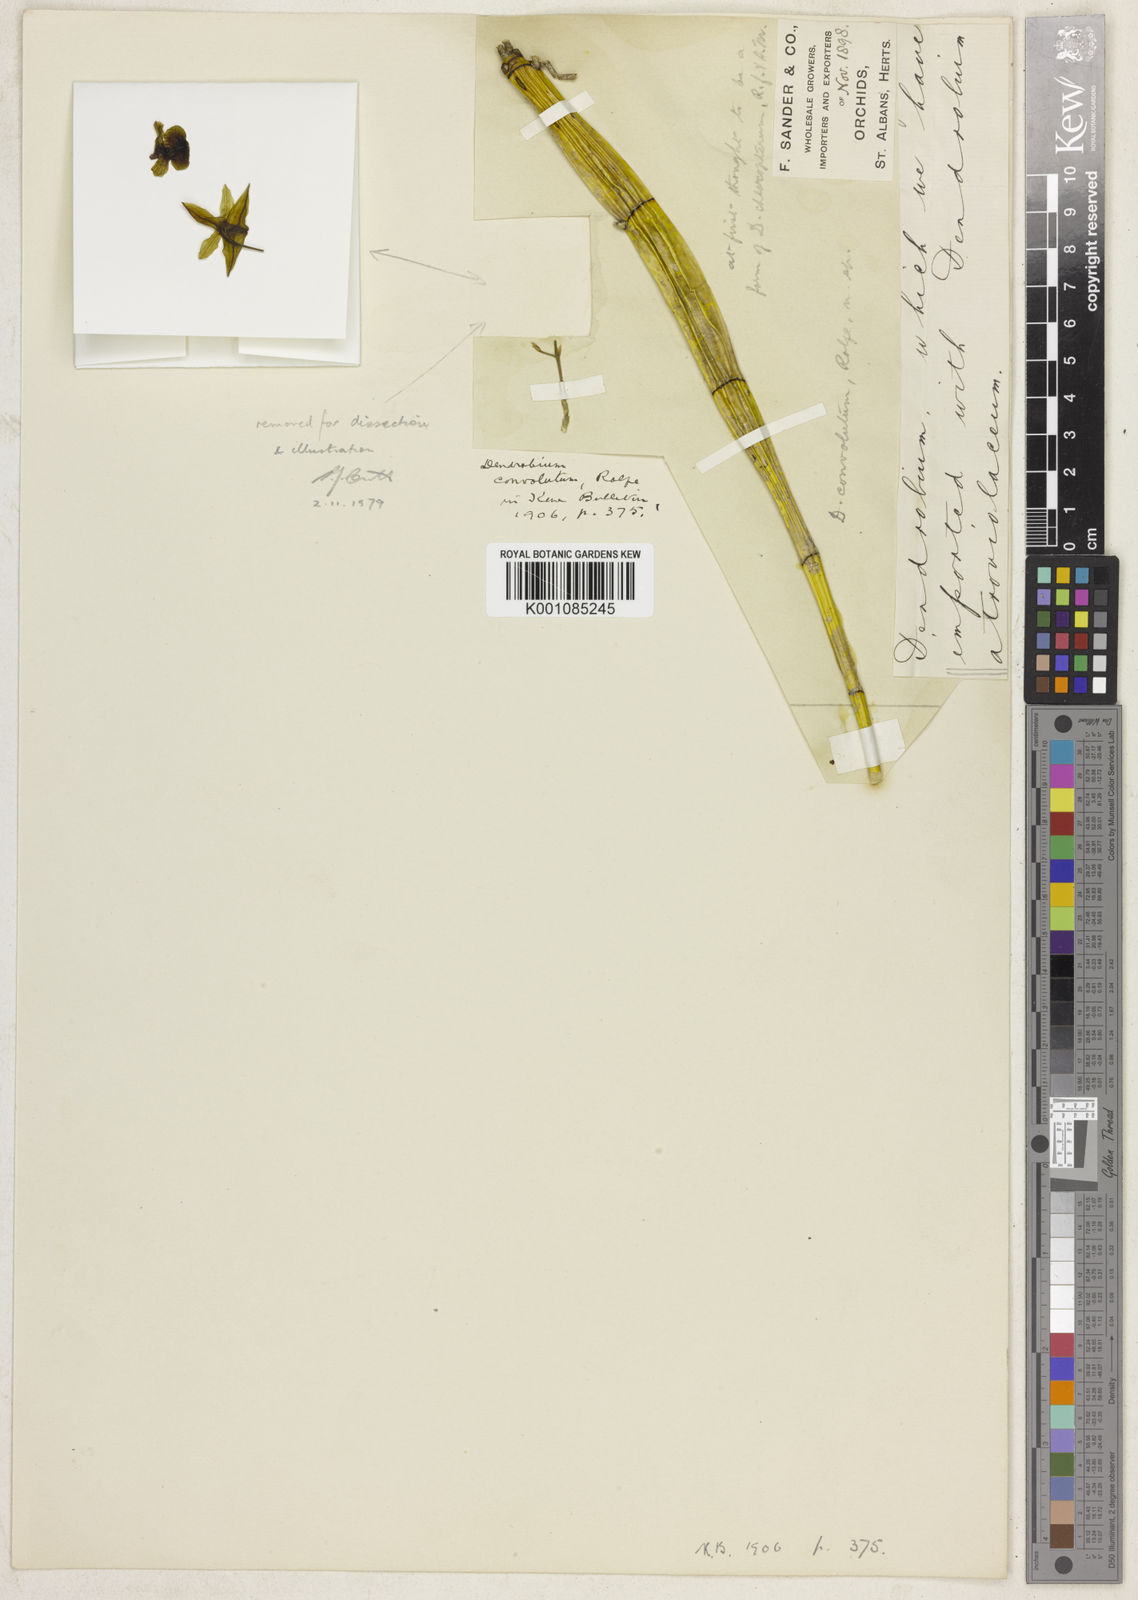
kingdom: Plantae
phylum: Tracheophyta
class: Liliopsida
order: Asparagales
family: Orchidaceae
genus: Dendrobium
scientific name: Dendrobium convolutum
